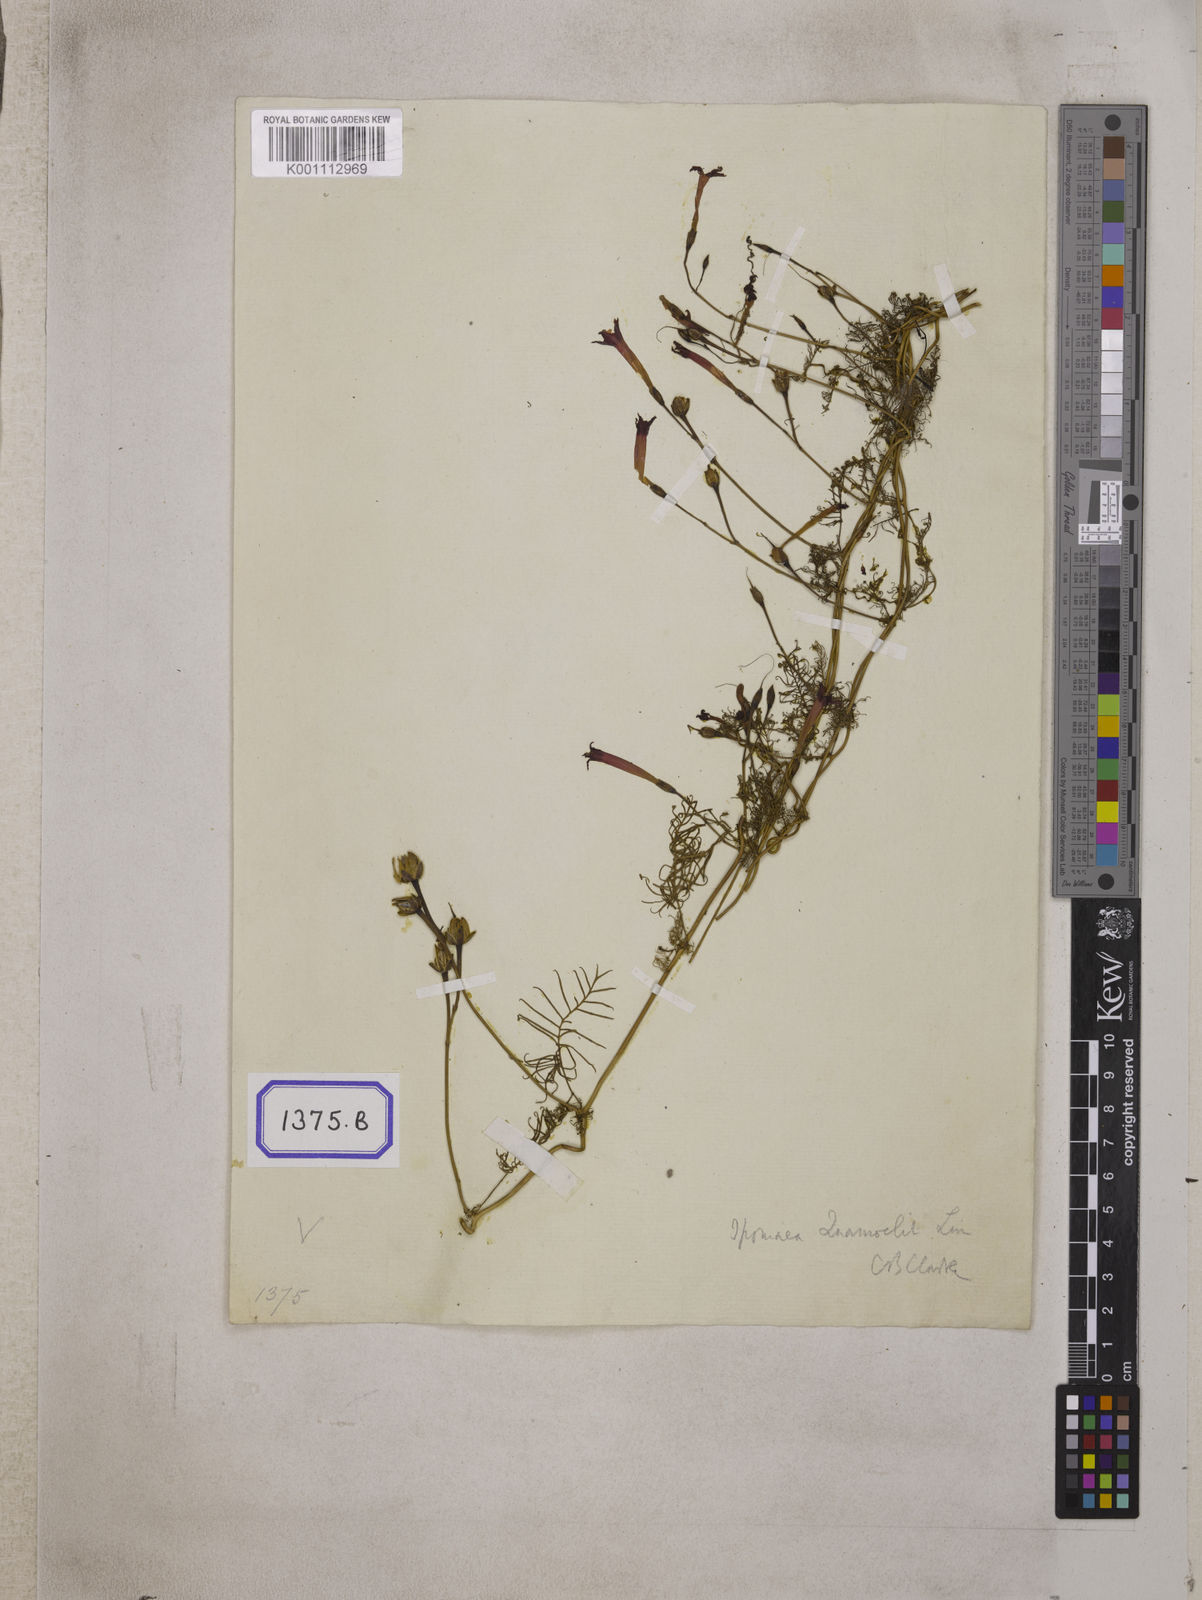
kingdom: Plantae
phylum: Tracheophyta
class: Magnoliopsida
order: Solanales
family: Convolvulaceae
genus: Ipomoea
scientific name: Ipomoea quamoclit
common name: Cypress vine
